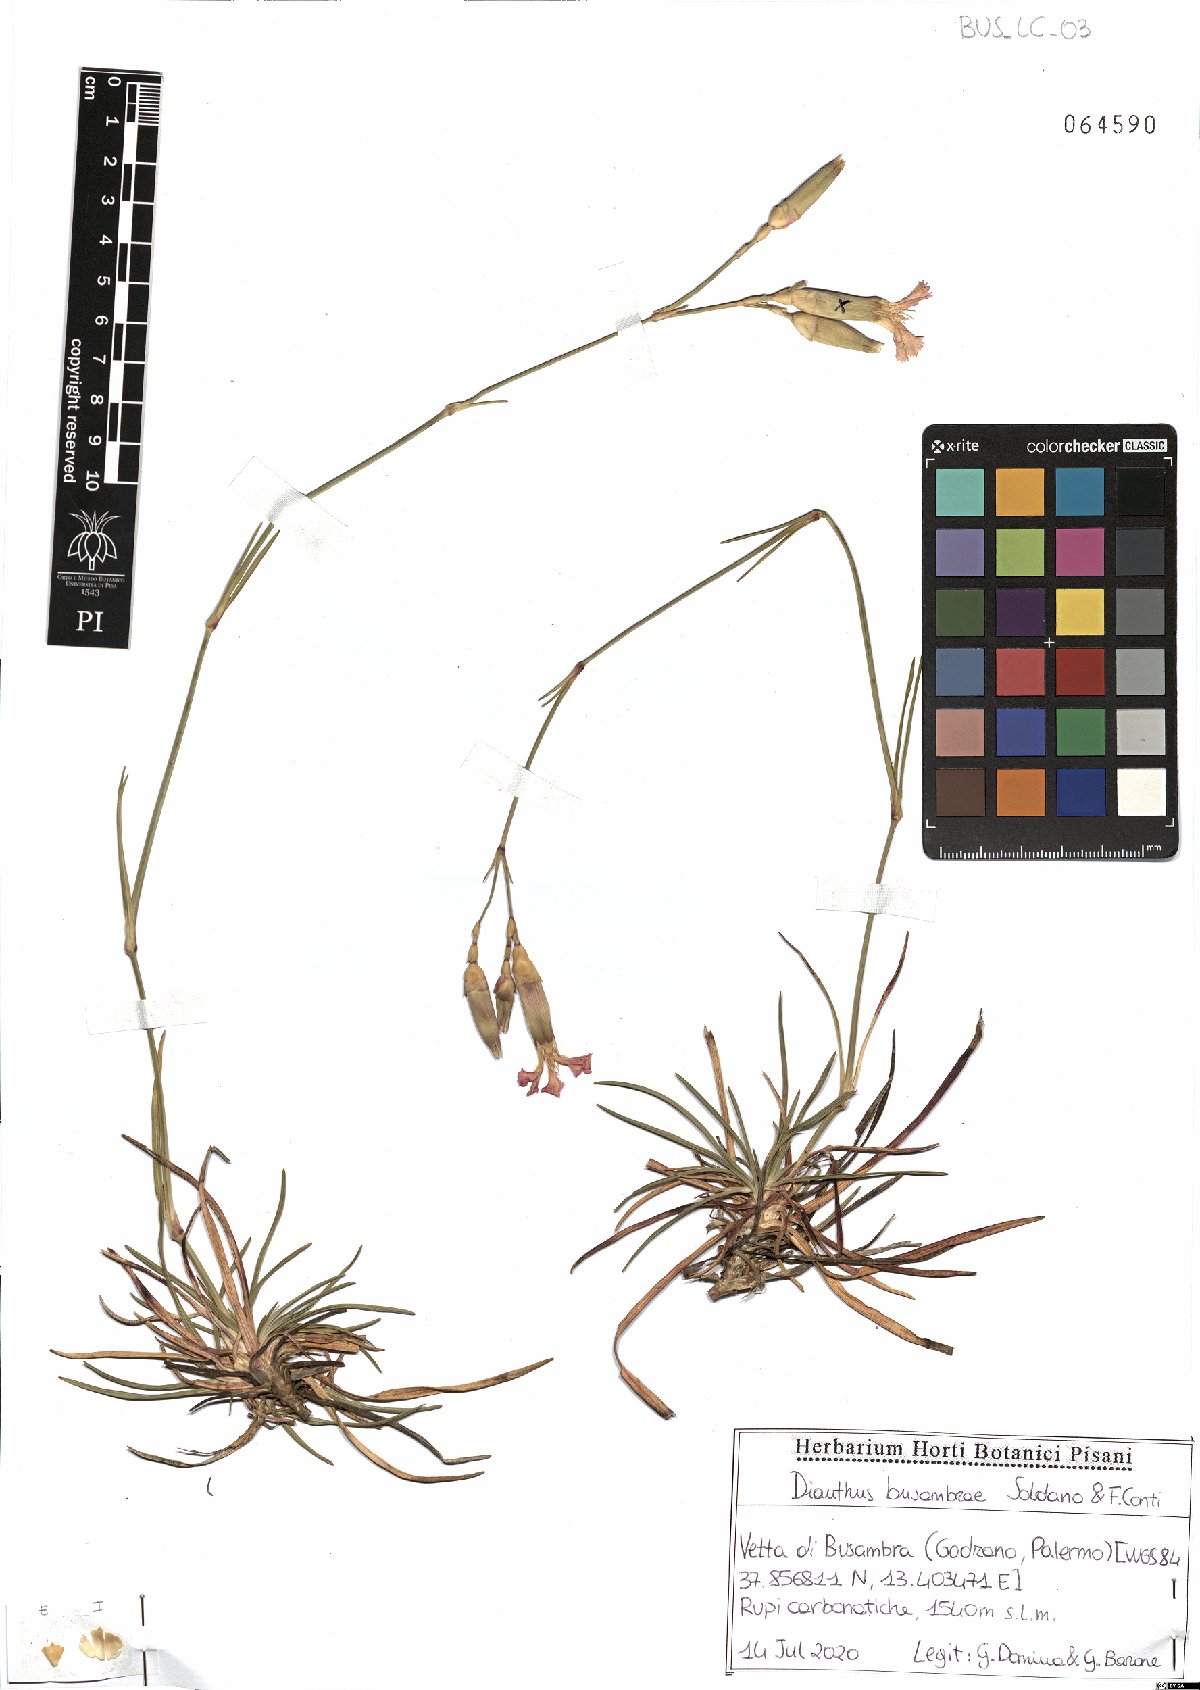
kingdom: Plantae
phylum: Tracheophyta
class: Magnoliopsida
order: Caryophyllales
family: Caryophyllaceae
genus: Dianthus
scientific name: Dianthus busambrae
